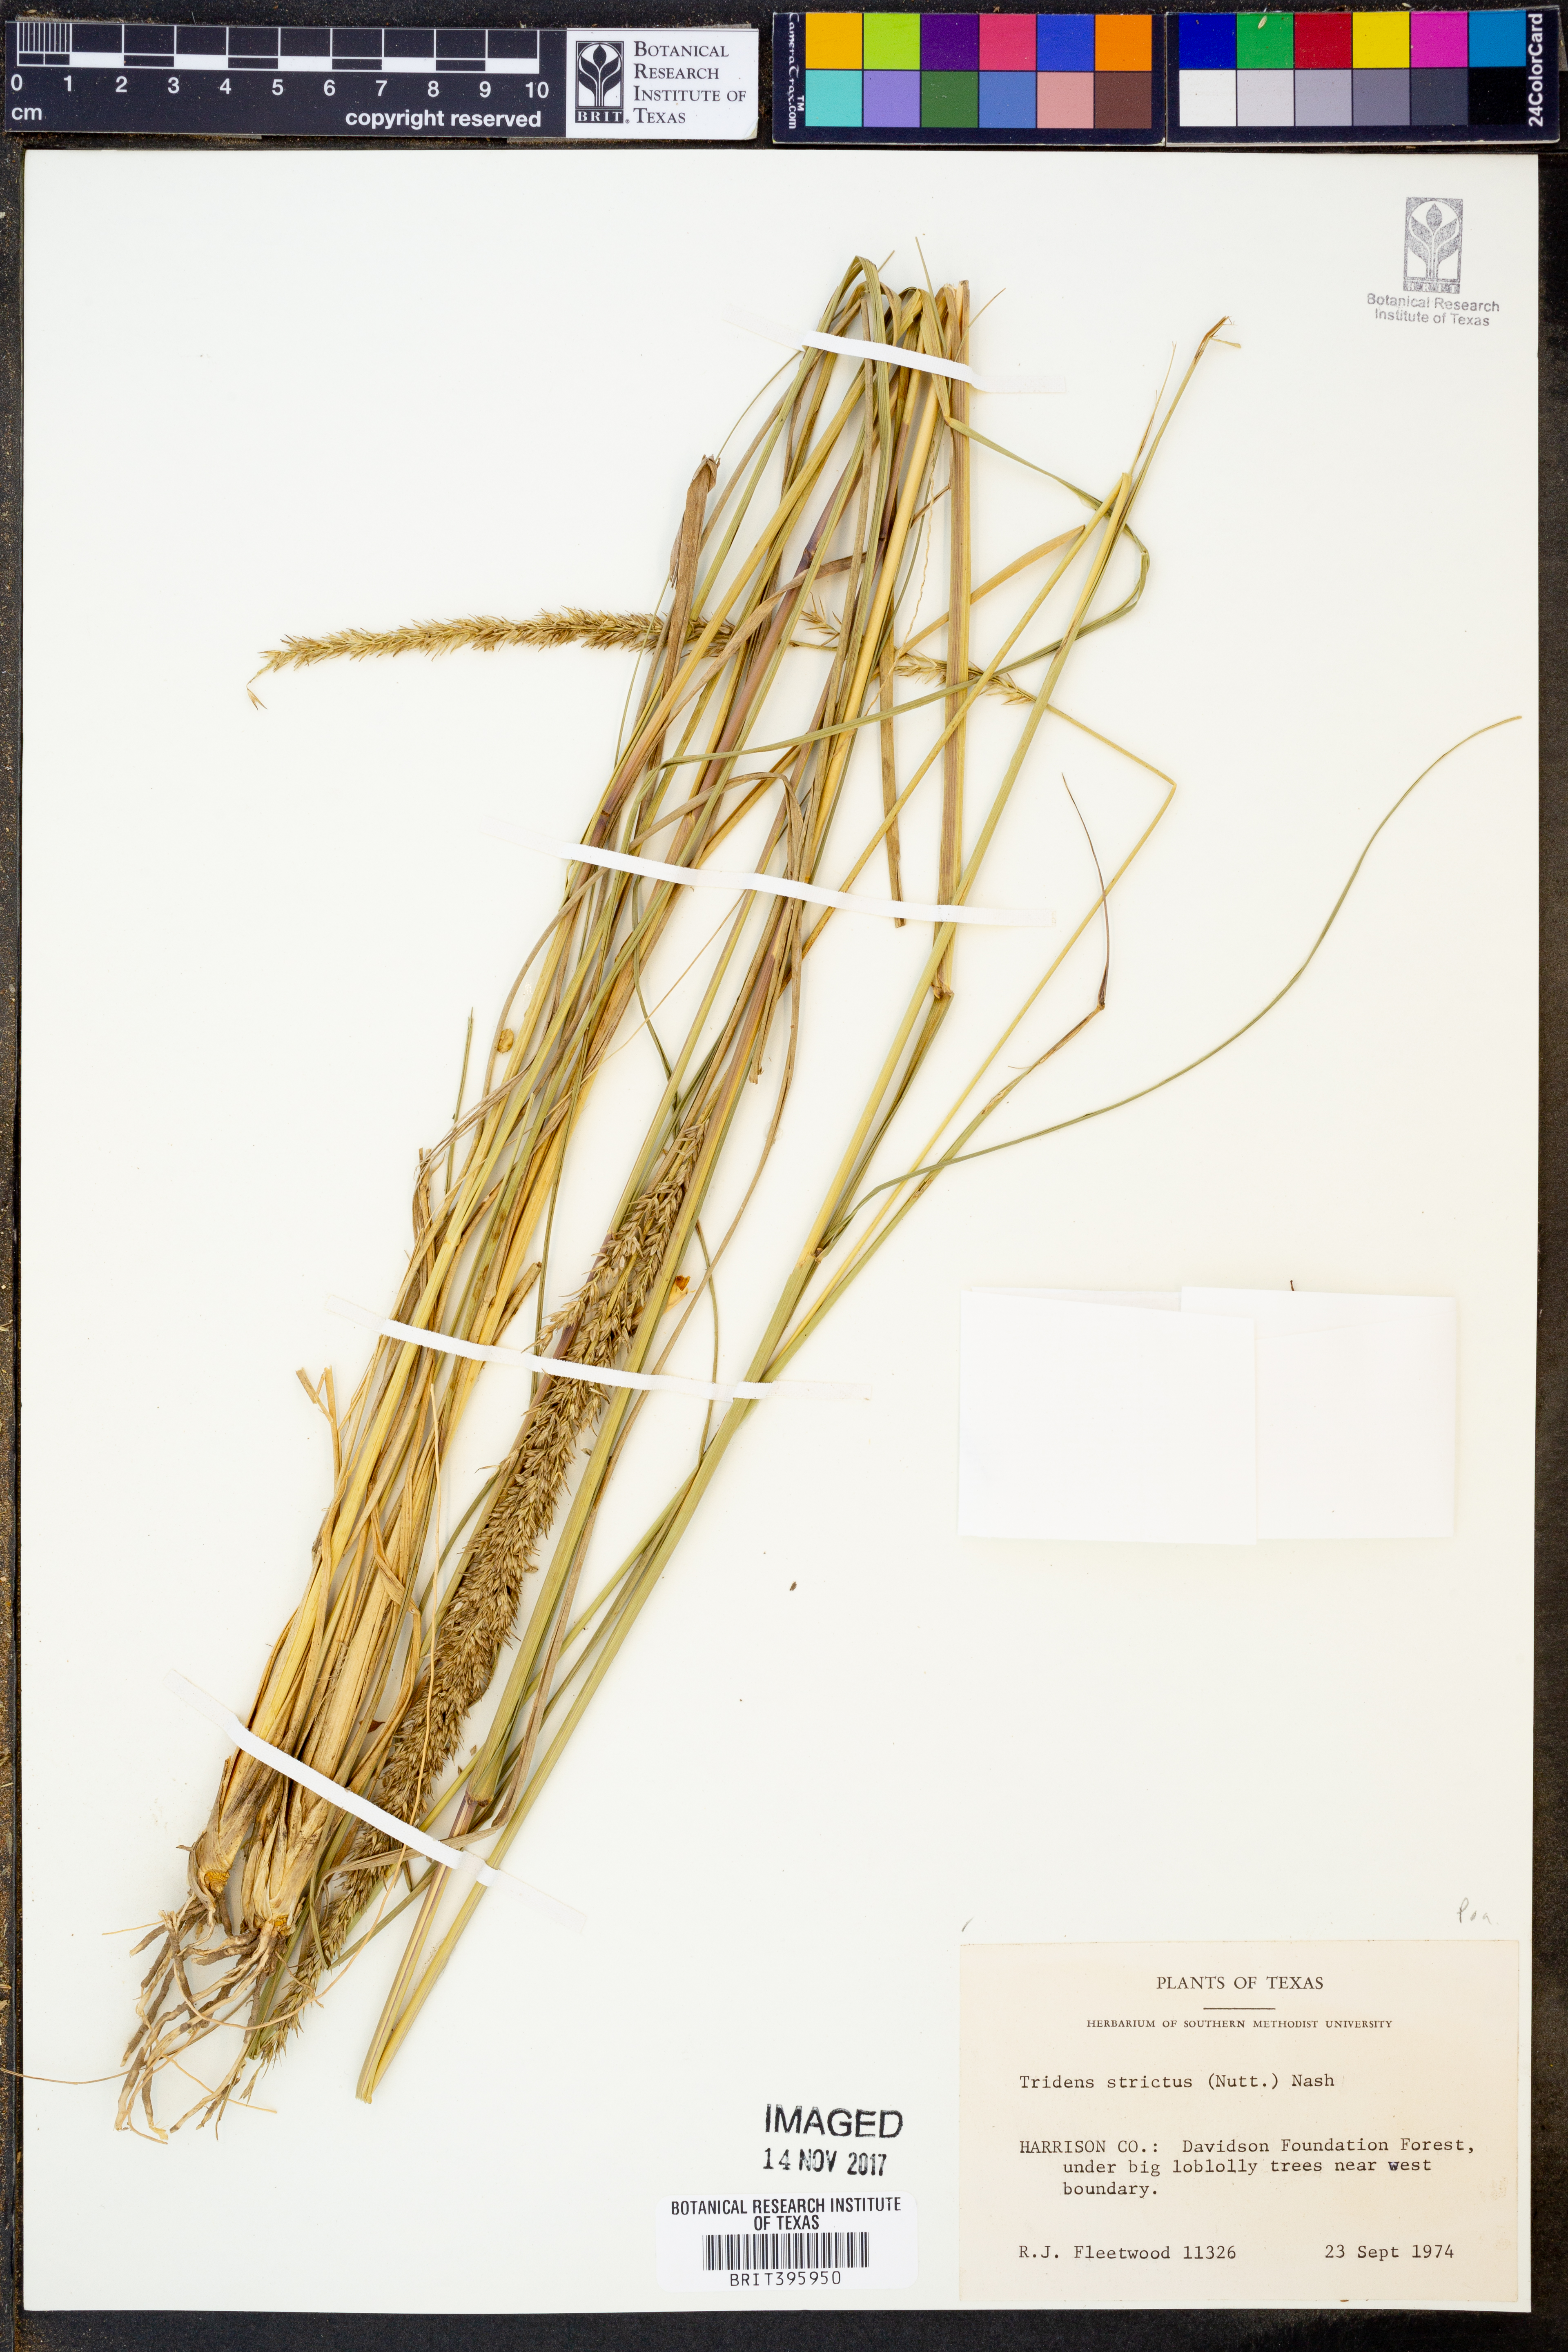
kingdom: Plantae
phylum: Tracheophyta
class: Liliopsida
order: Poales
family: Poaceae
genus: Tridens
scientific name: Tridens strictus
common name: Long-spike tridens
